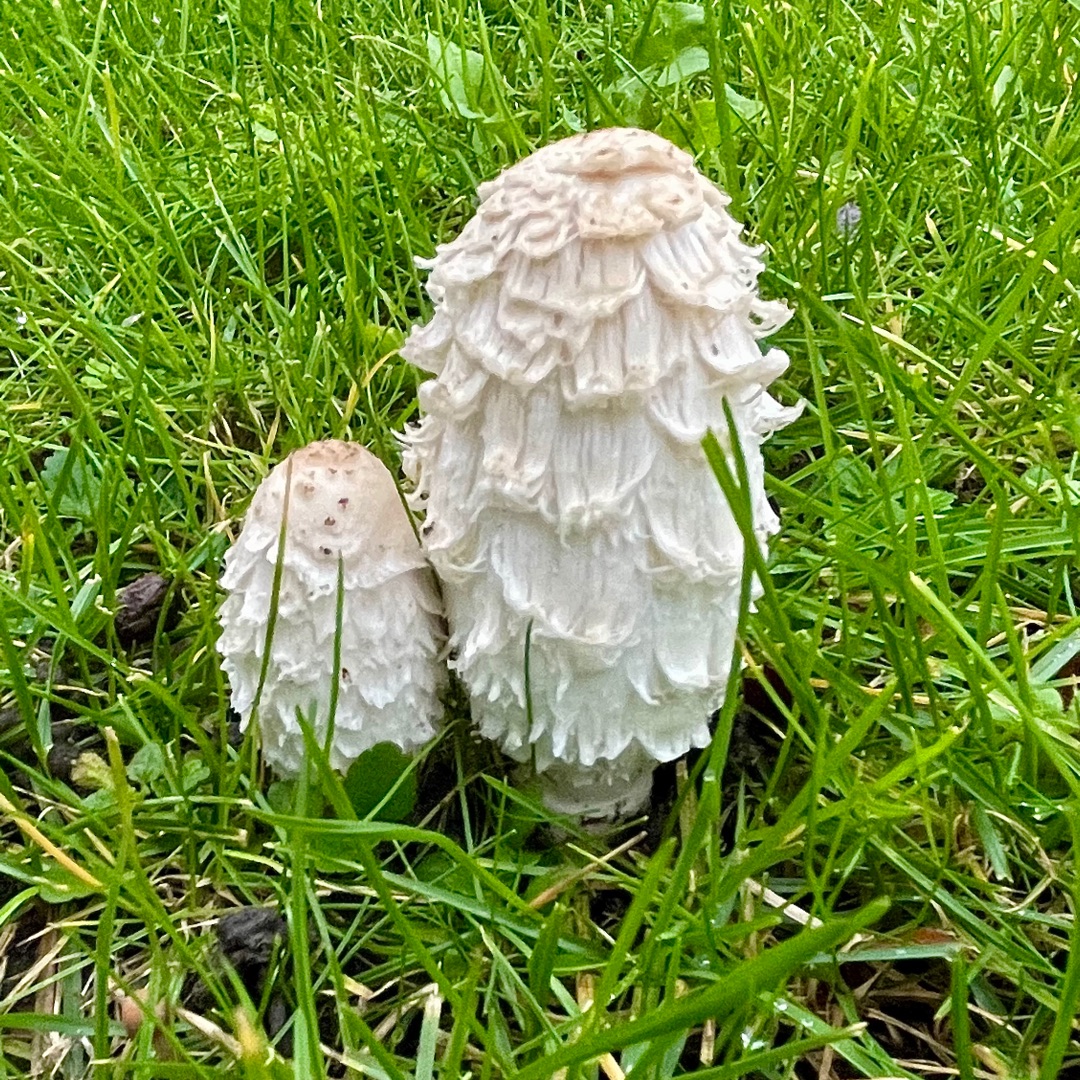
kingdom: Fungi
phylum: Basidiomycota
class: Agaricomycetes
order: Agaricales
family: Agaricaceae
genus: Coprinus
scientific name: Coprinus comatus
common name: Stor parykhat
